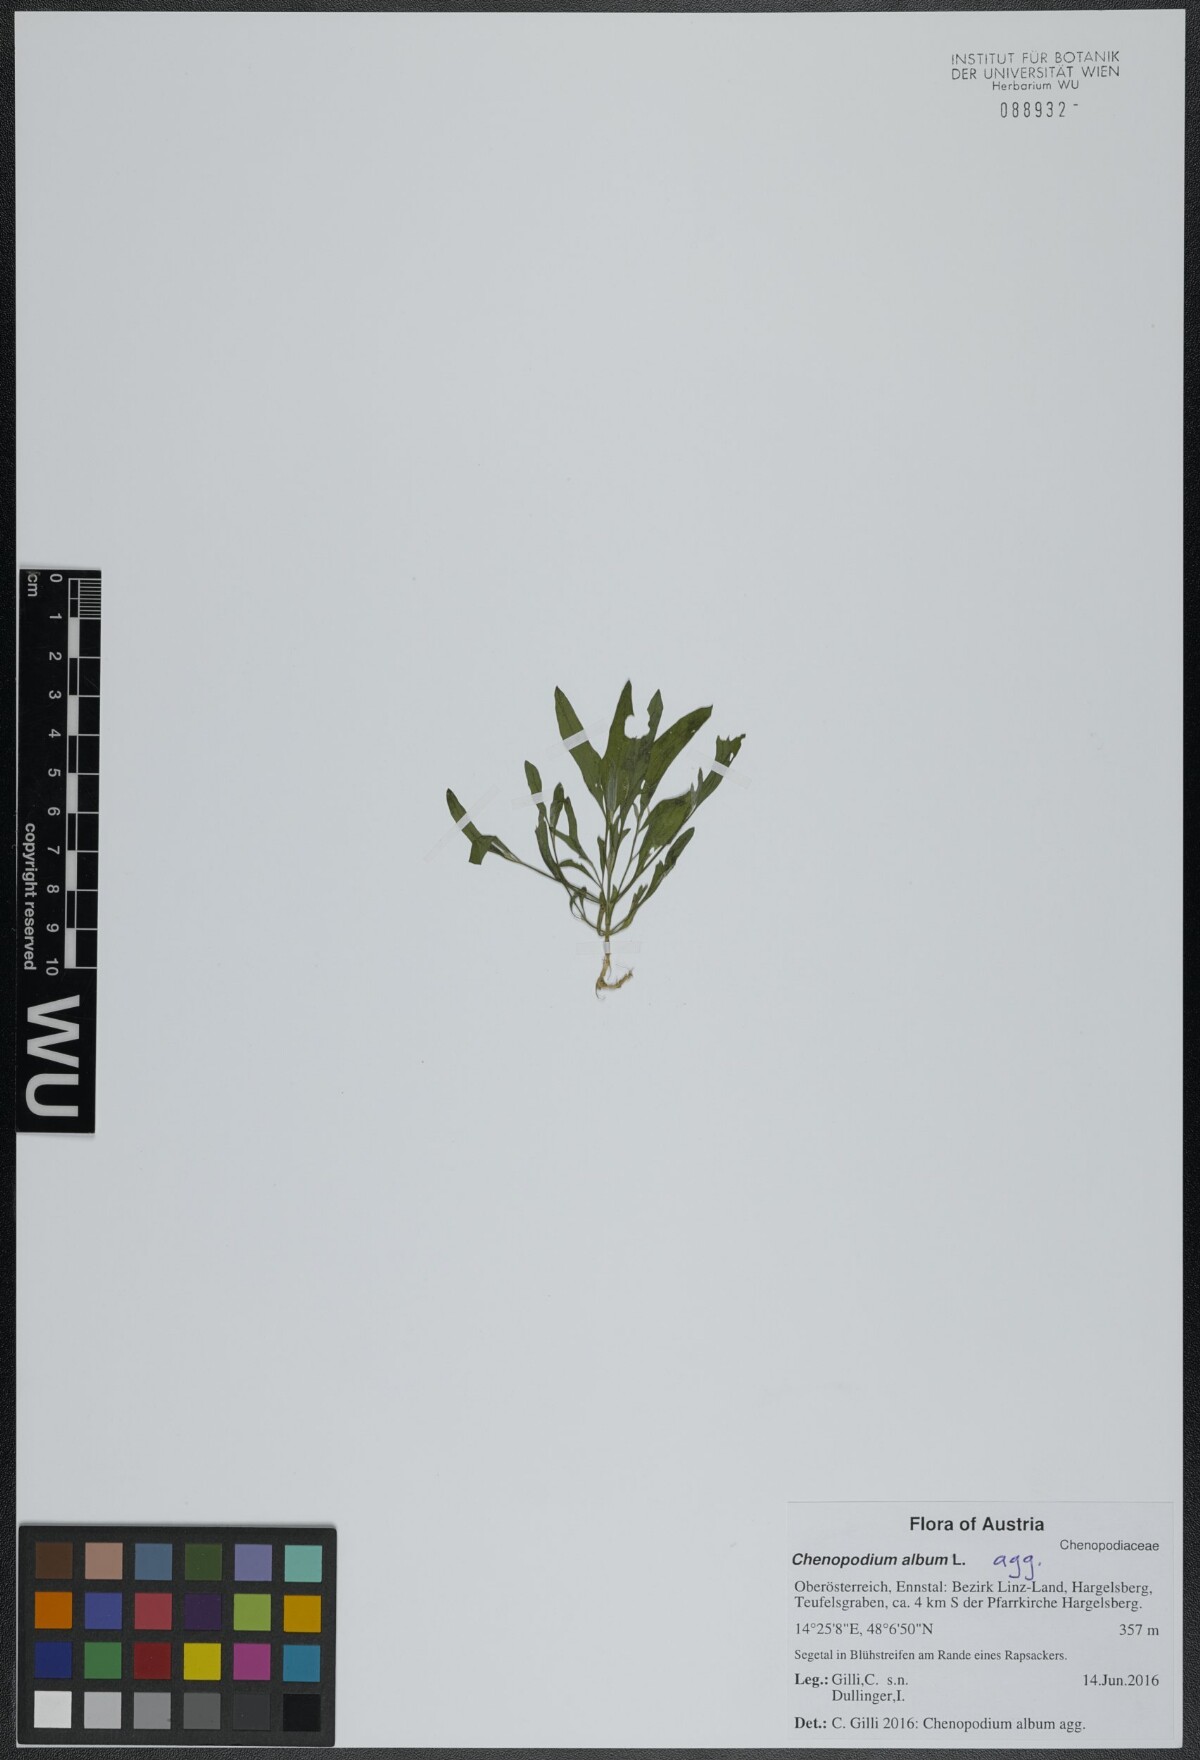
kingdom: Plantae
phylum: Tracheophyta
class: Magnoliopsida
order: Caryophyllales
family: Amaranthaceae
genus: Chenopodium
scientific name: Chenopodium album
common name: Fat-hen
